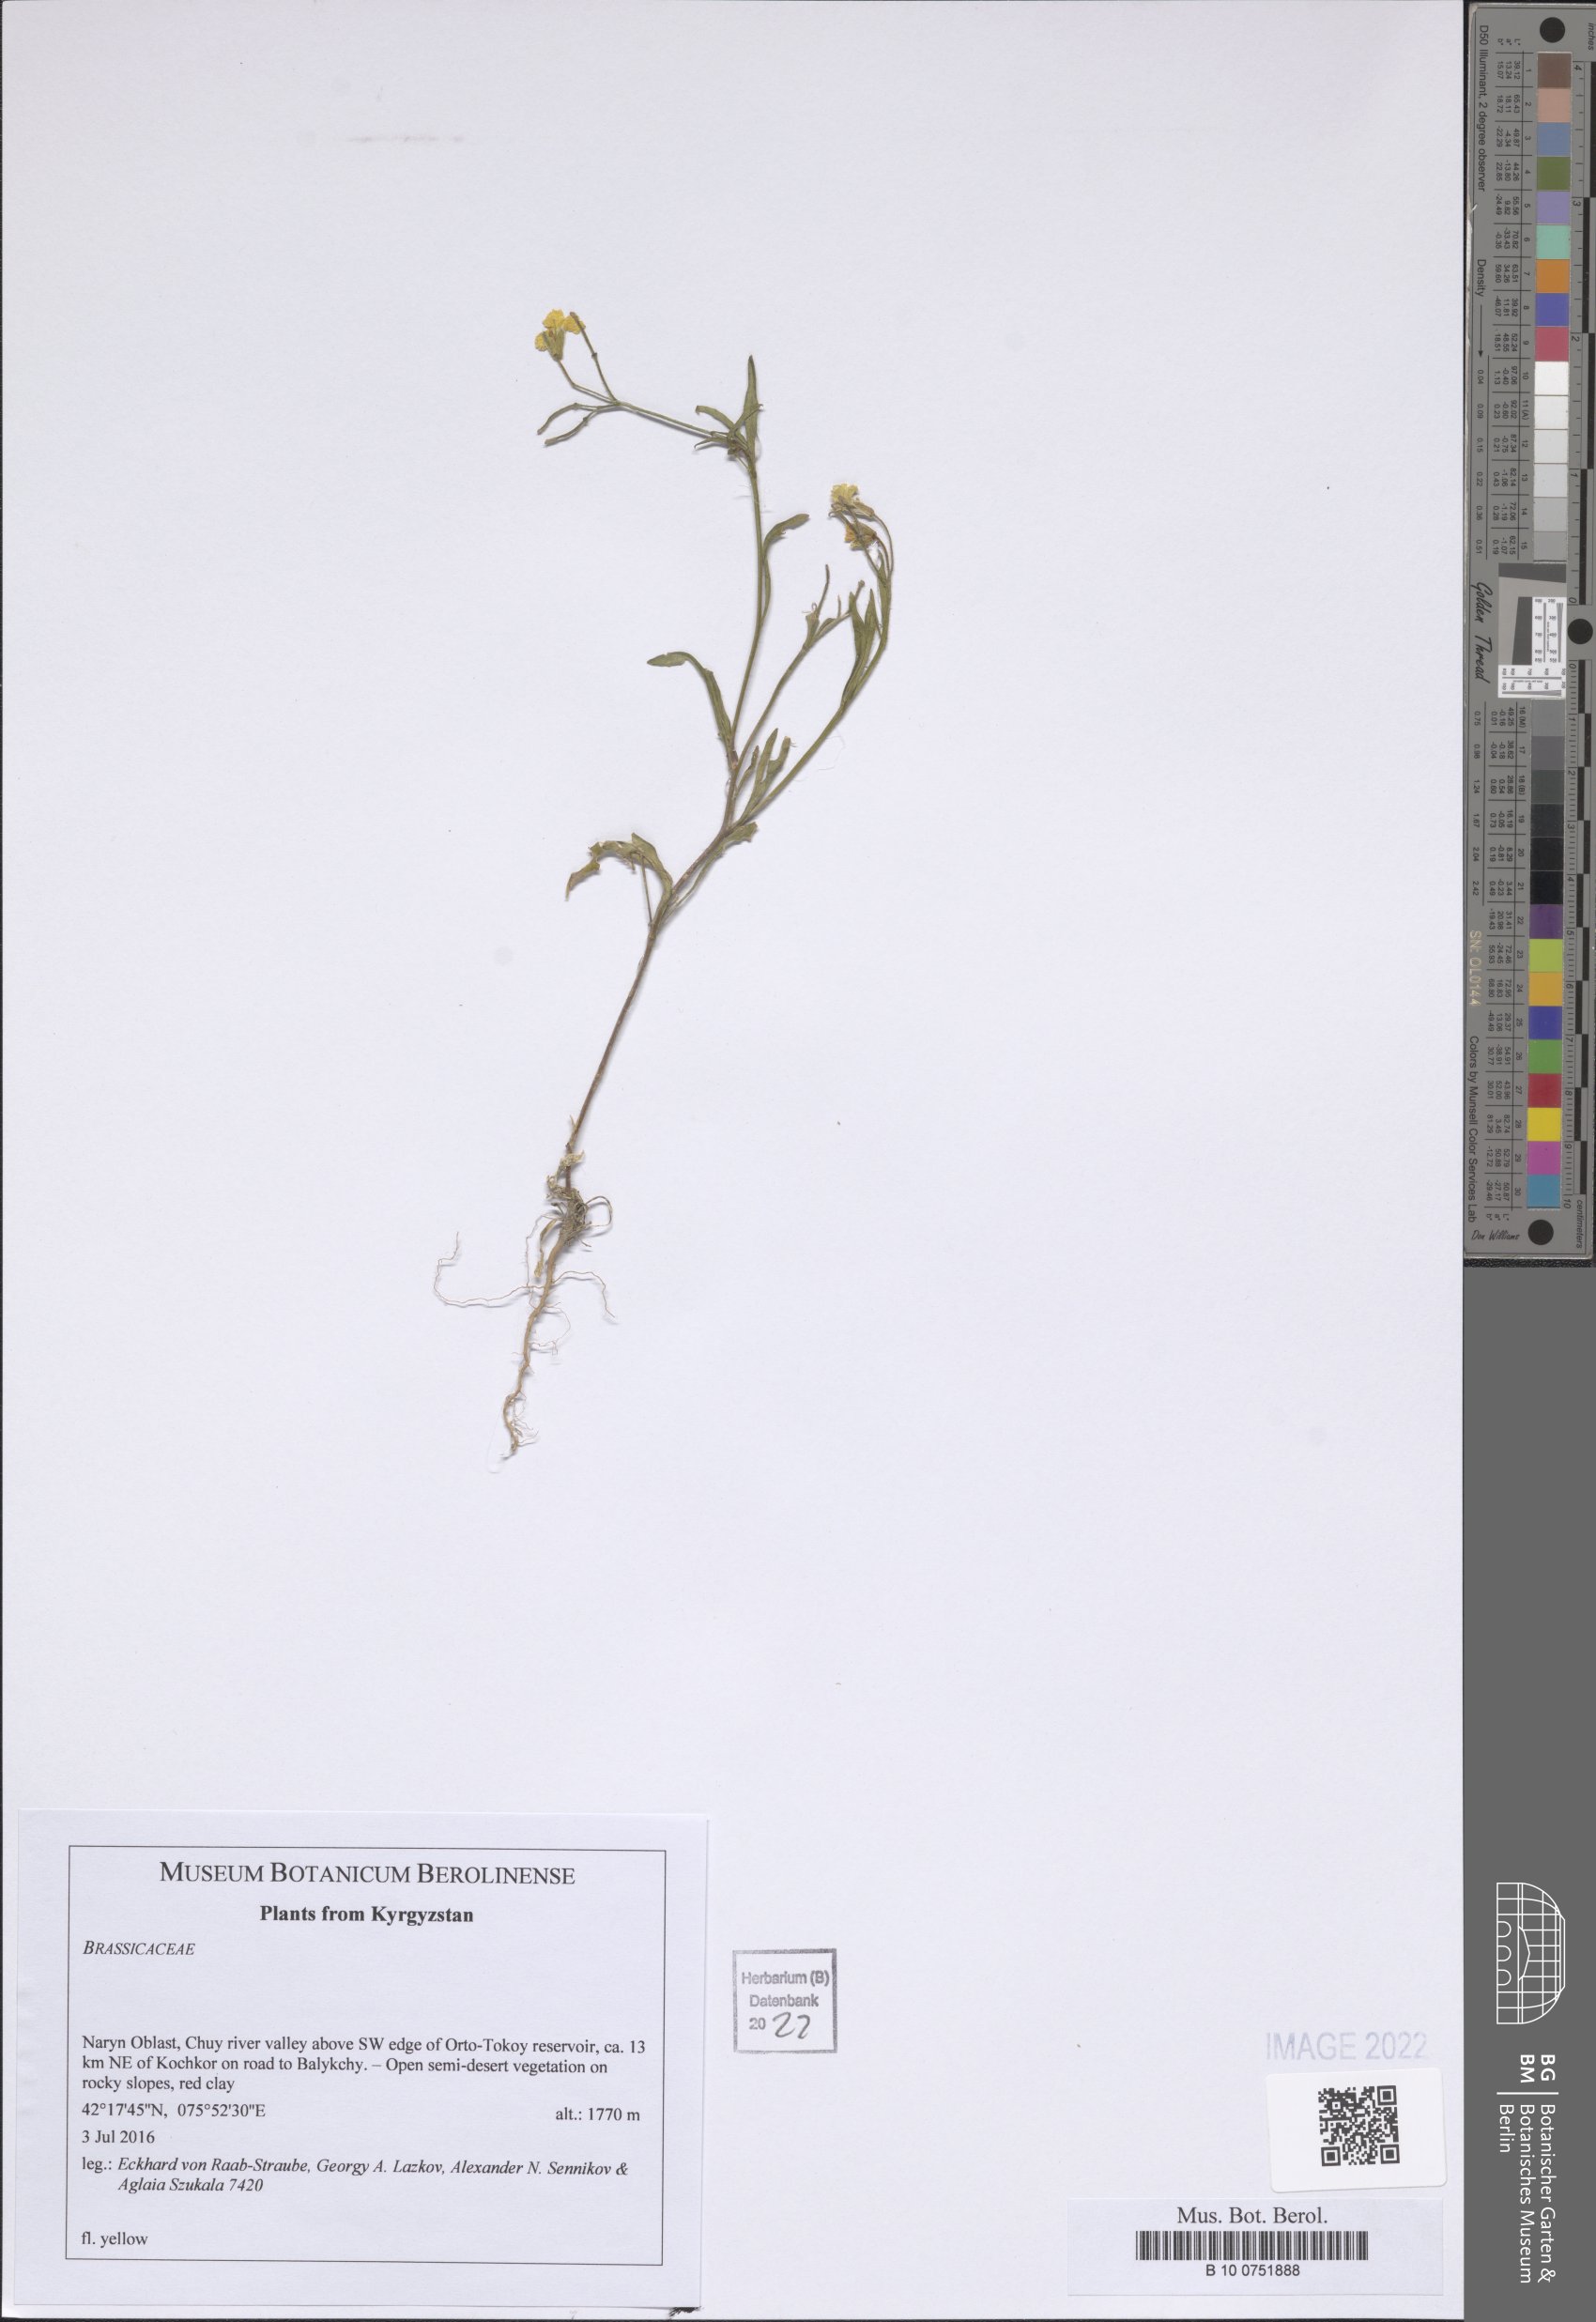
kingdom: Plantae
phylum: Tracheophyta
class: Magnoliopsida
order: Brassicales
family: Brassicaceae
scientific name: Brassicaceae
